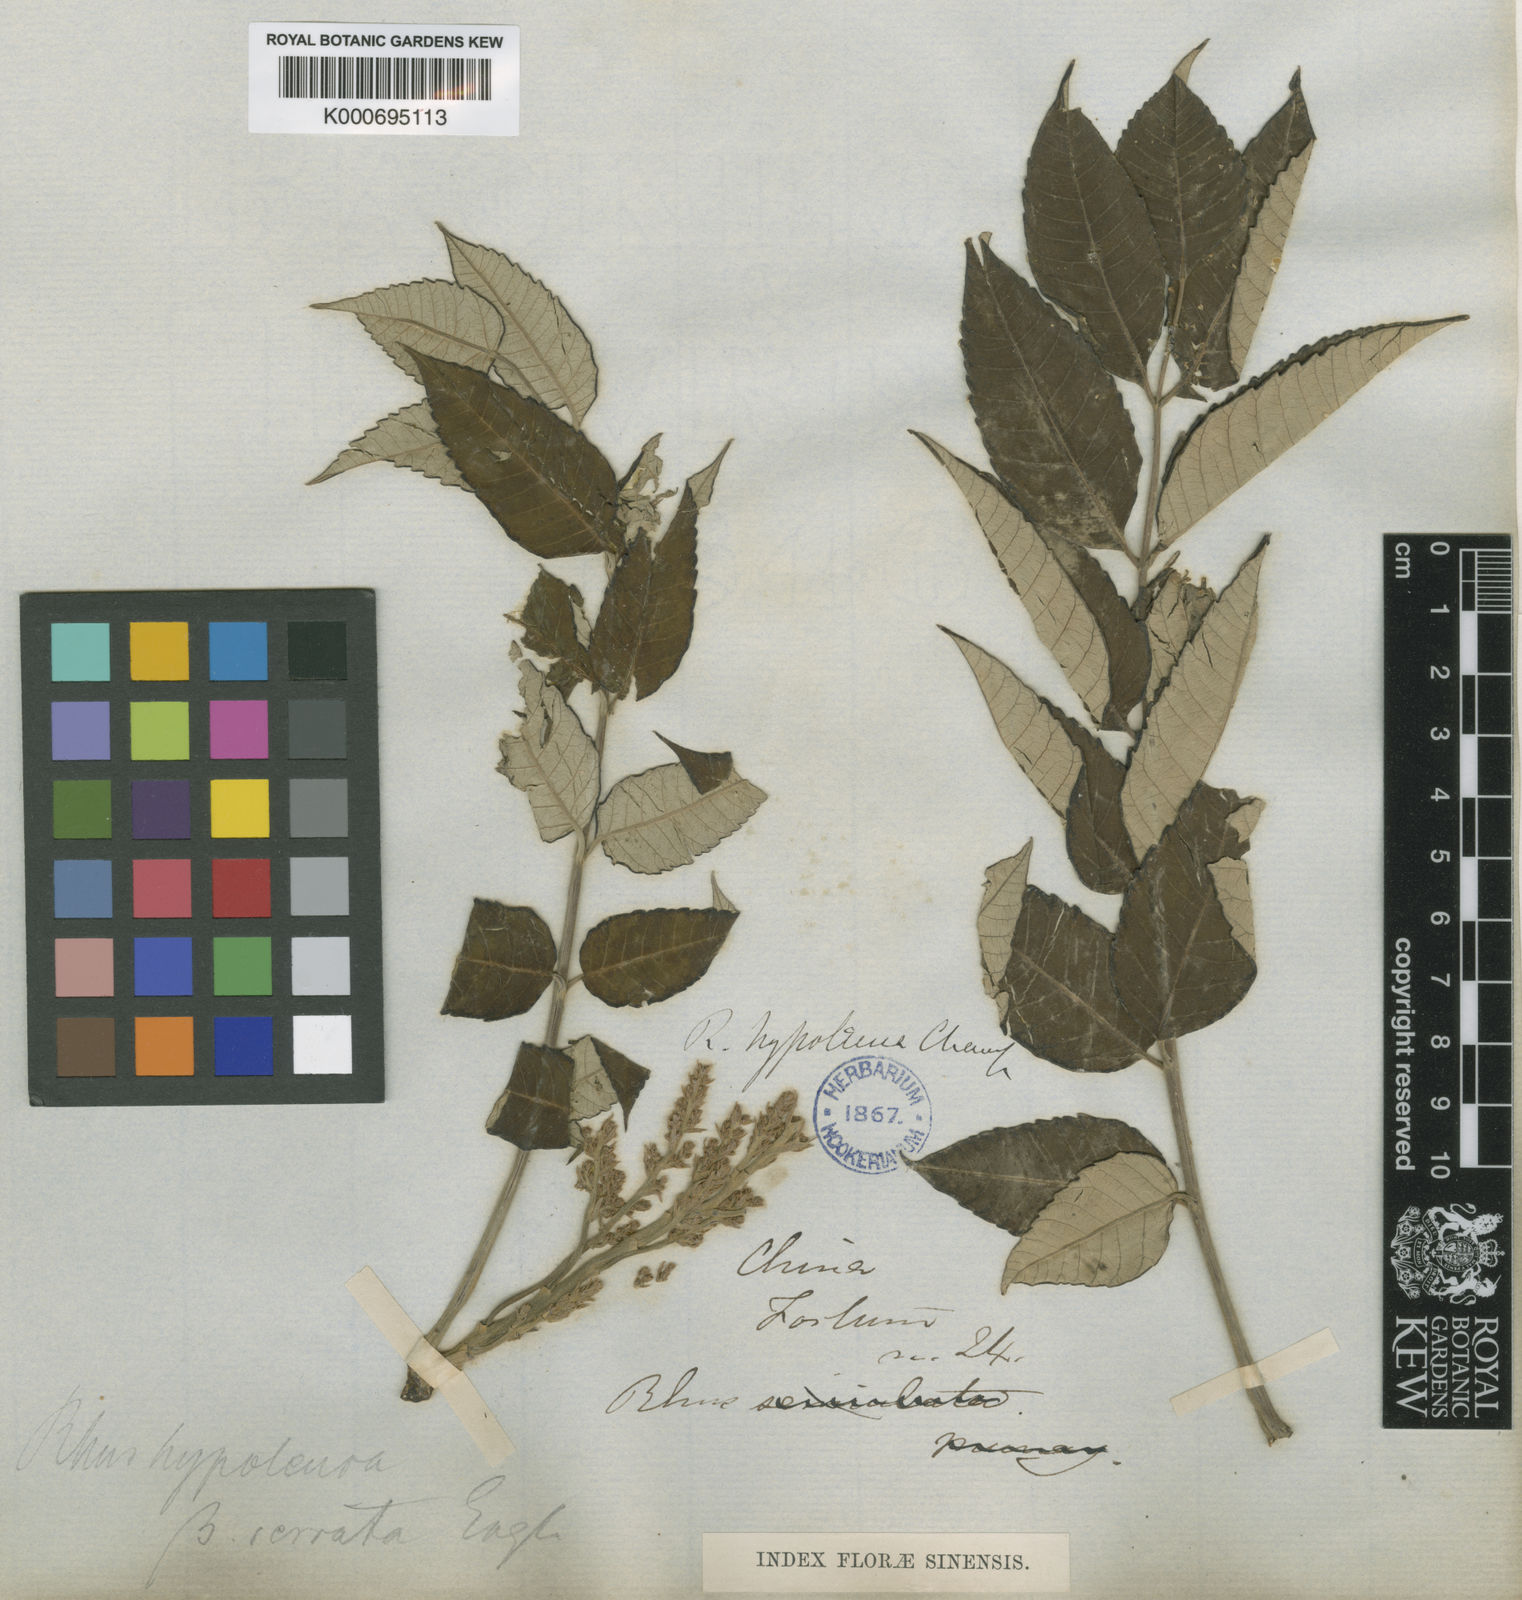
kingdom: Plantae
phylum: Tracheophyta
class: Magnoliopsida
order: Sapindales
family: Anacardiaceae
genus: Rhus
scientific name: Rhus hypoleuca
